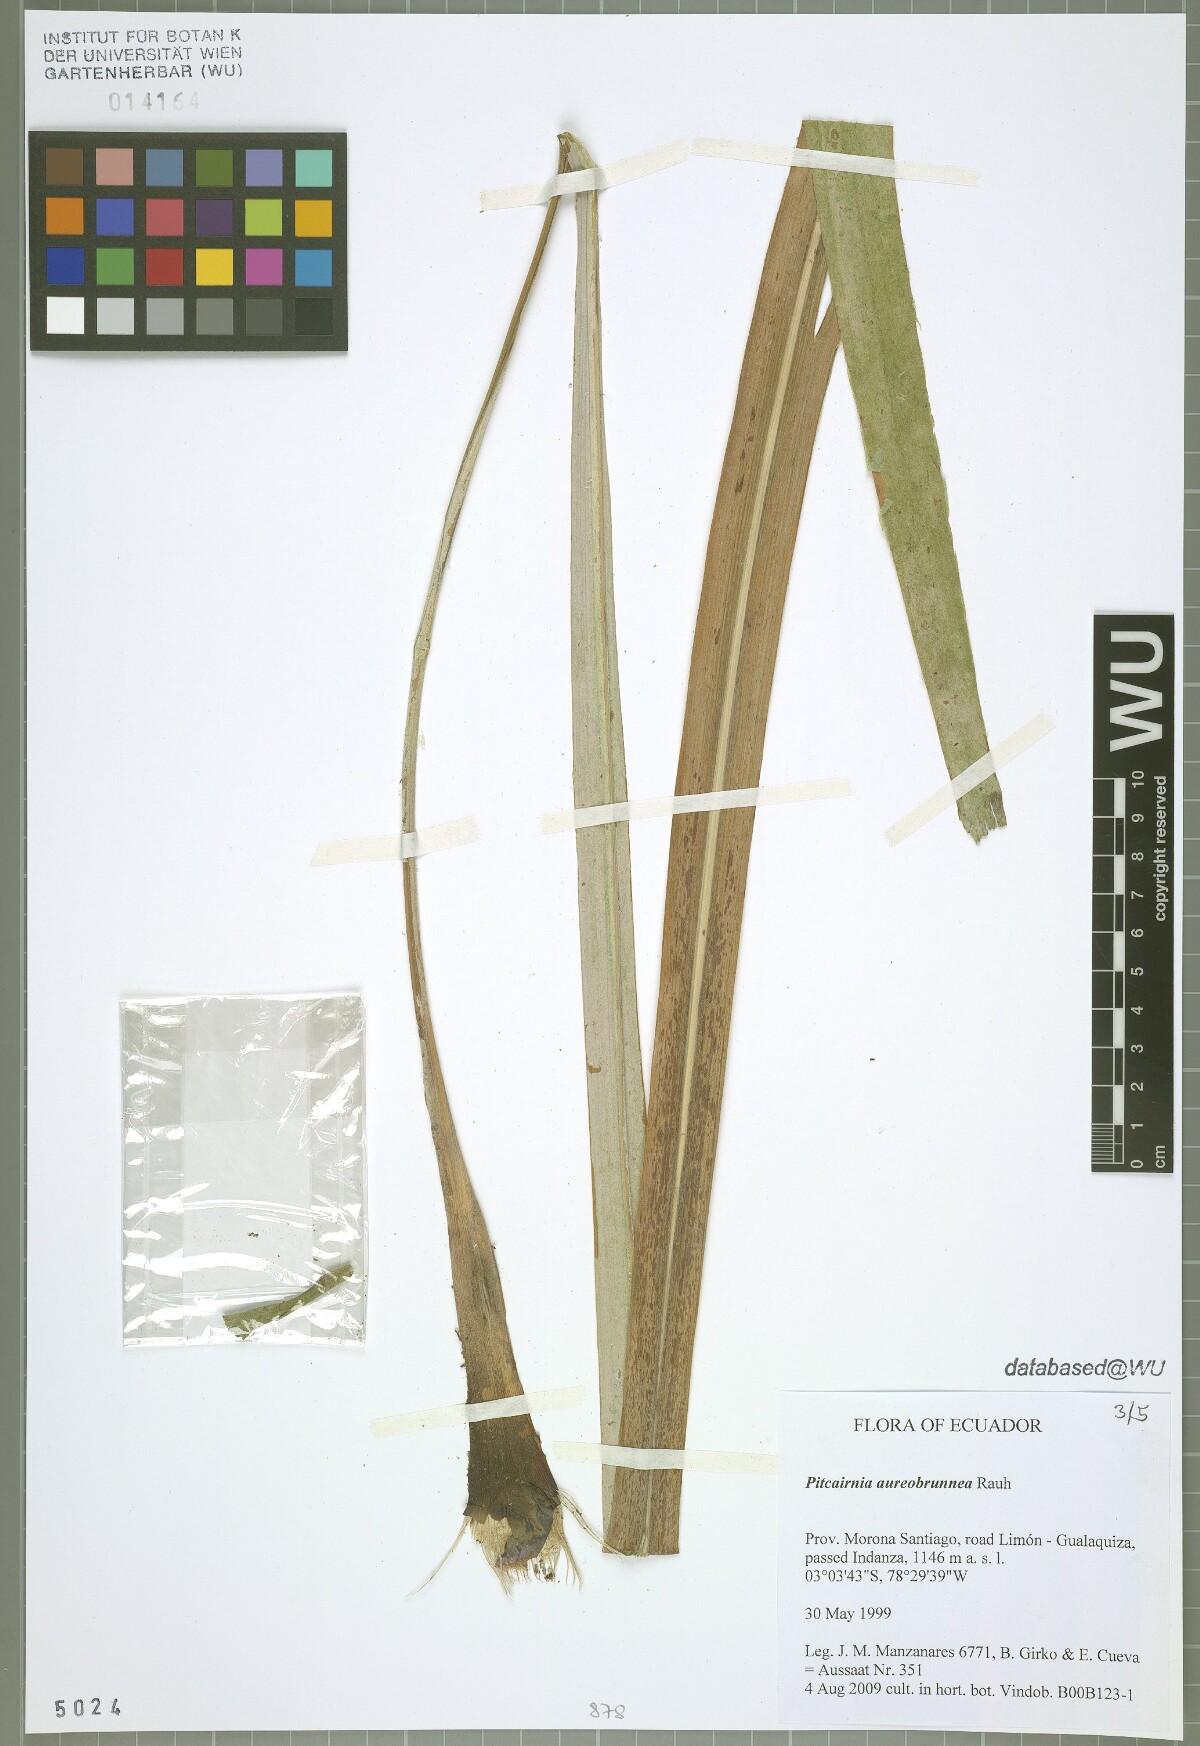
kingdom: Plantae
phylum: Tracheophyta
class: Liliopsida
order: Poales
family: Bromeliaceae
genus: Pitcairnia
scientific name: Pitcairnia aureobrunnea
